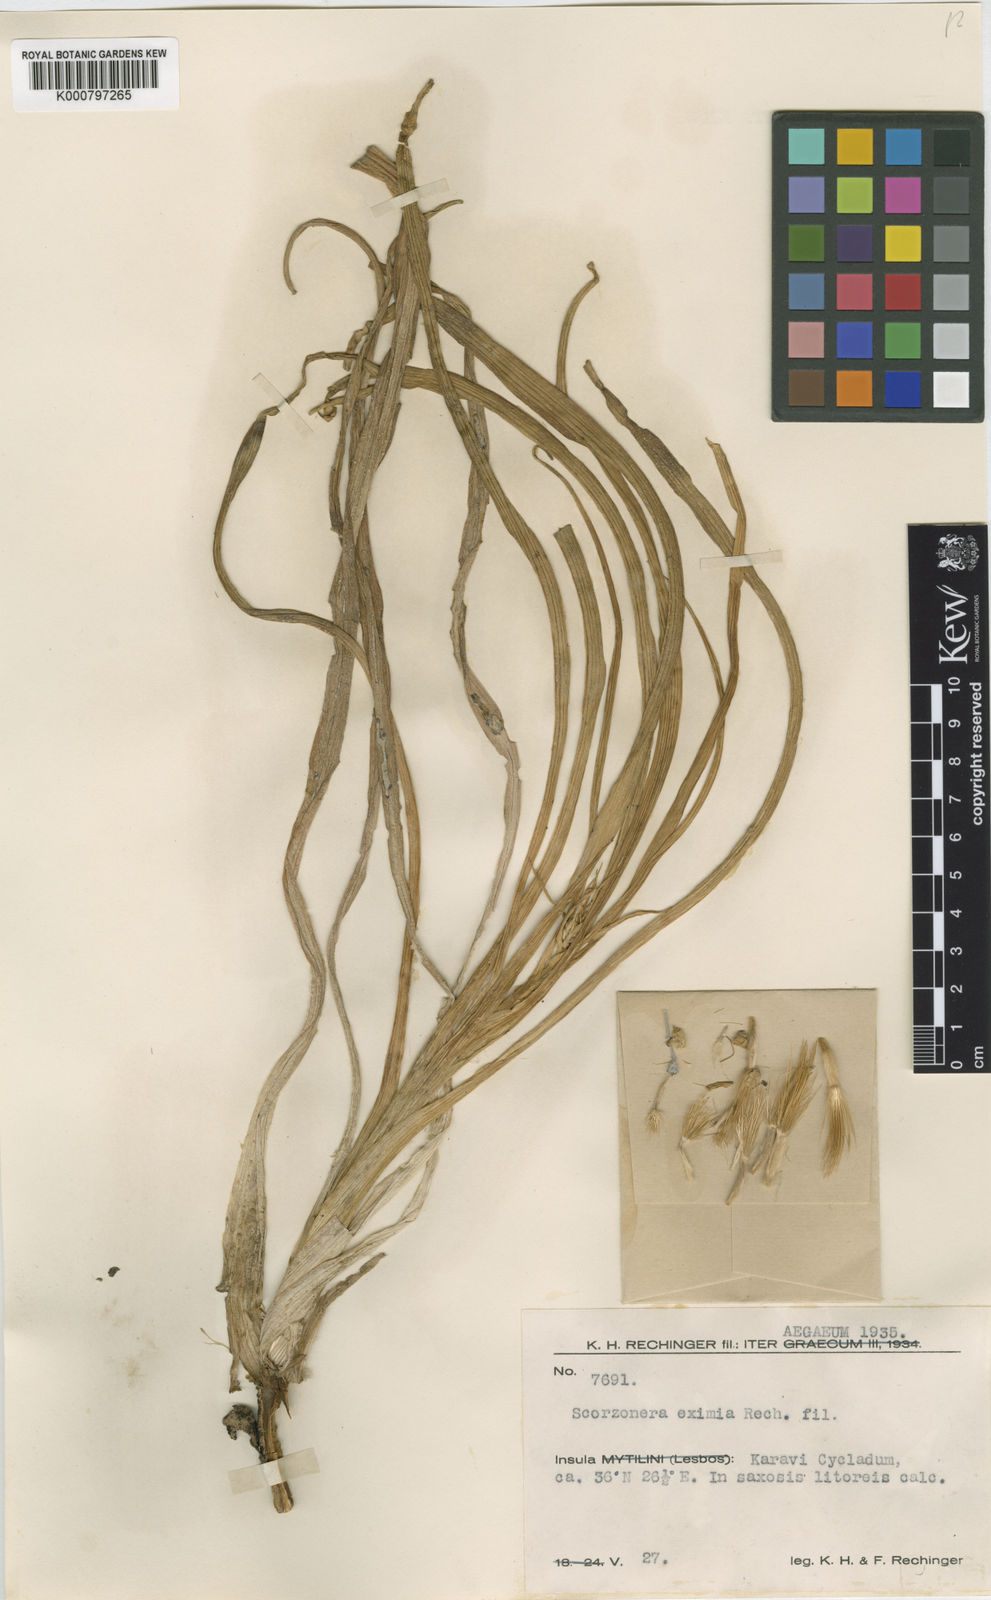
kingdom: Plantae
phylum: Tracheophyta
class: Magnoliopsida
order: Asterales
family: Asteraceae
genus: Gelasia
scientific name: Gelasia araneosa
